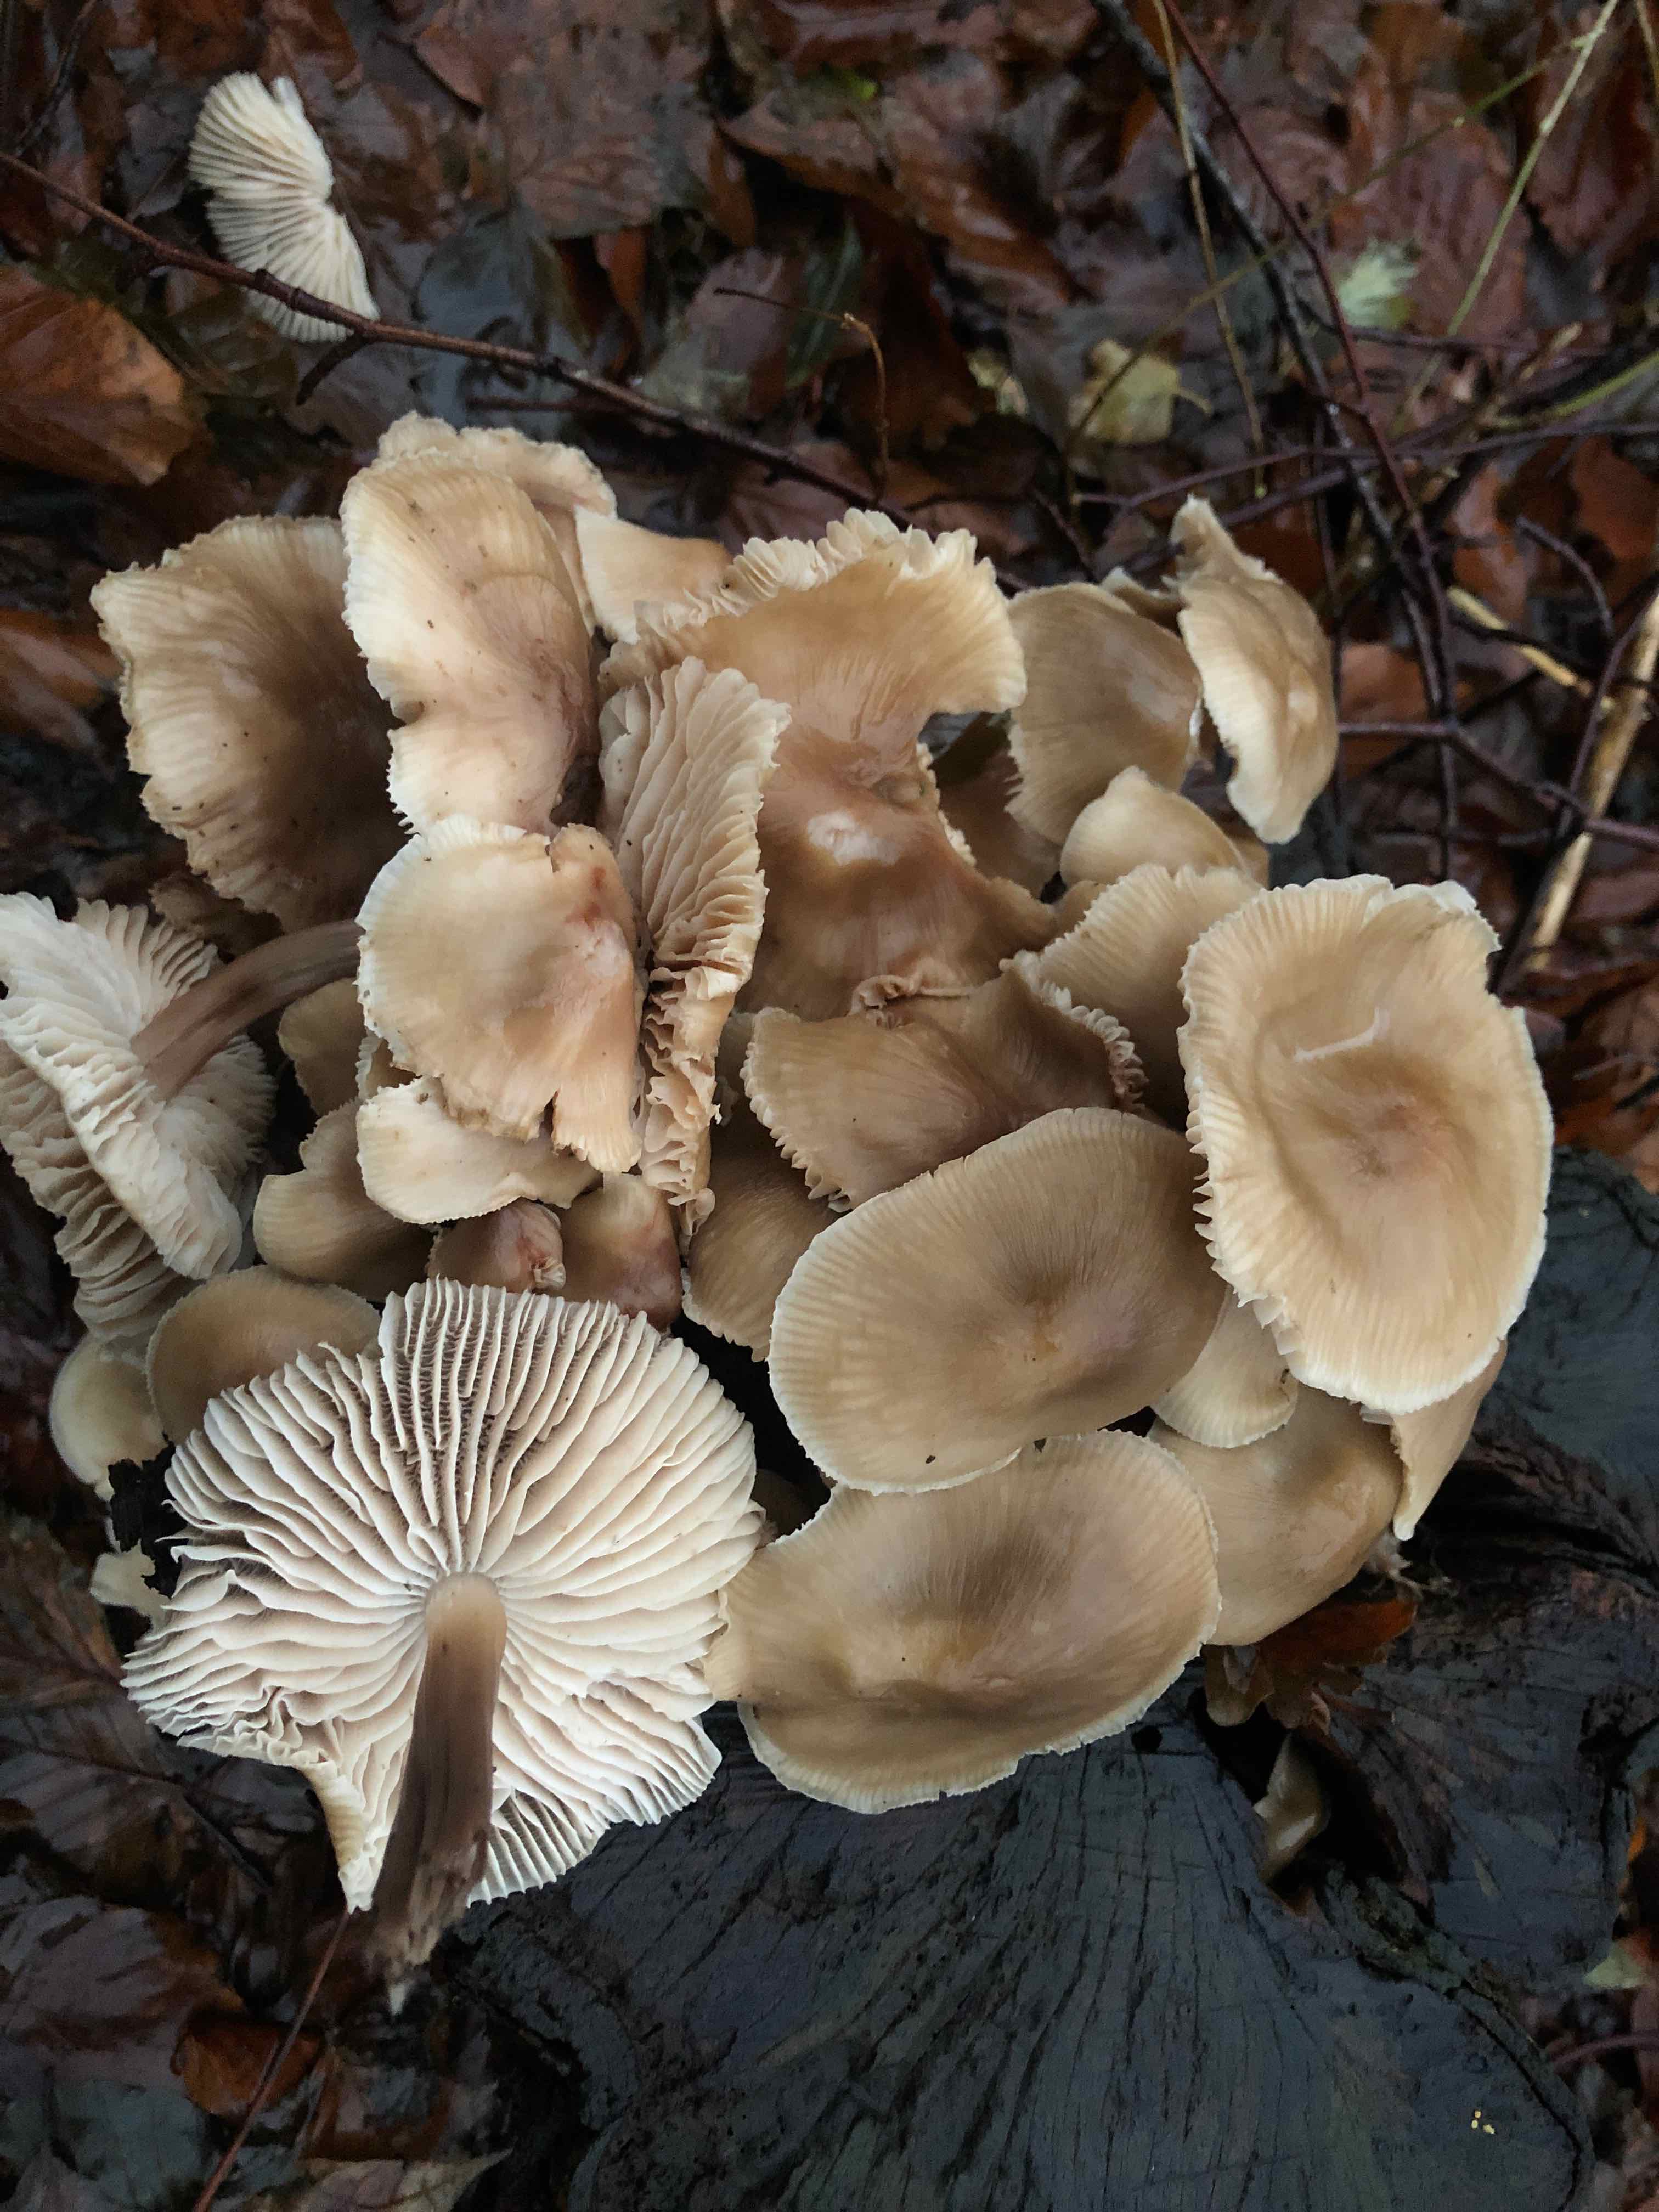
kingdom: Fungi
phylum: Basidiomycota
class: Agaricomycetes
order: Agaricales
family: Mycenaceae
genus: Mycena
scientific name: Mycena galericulata
